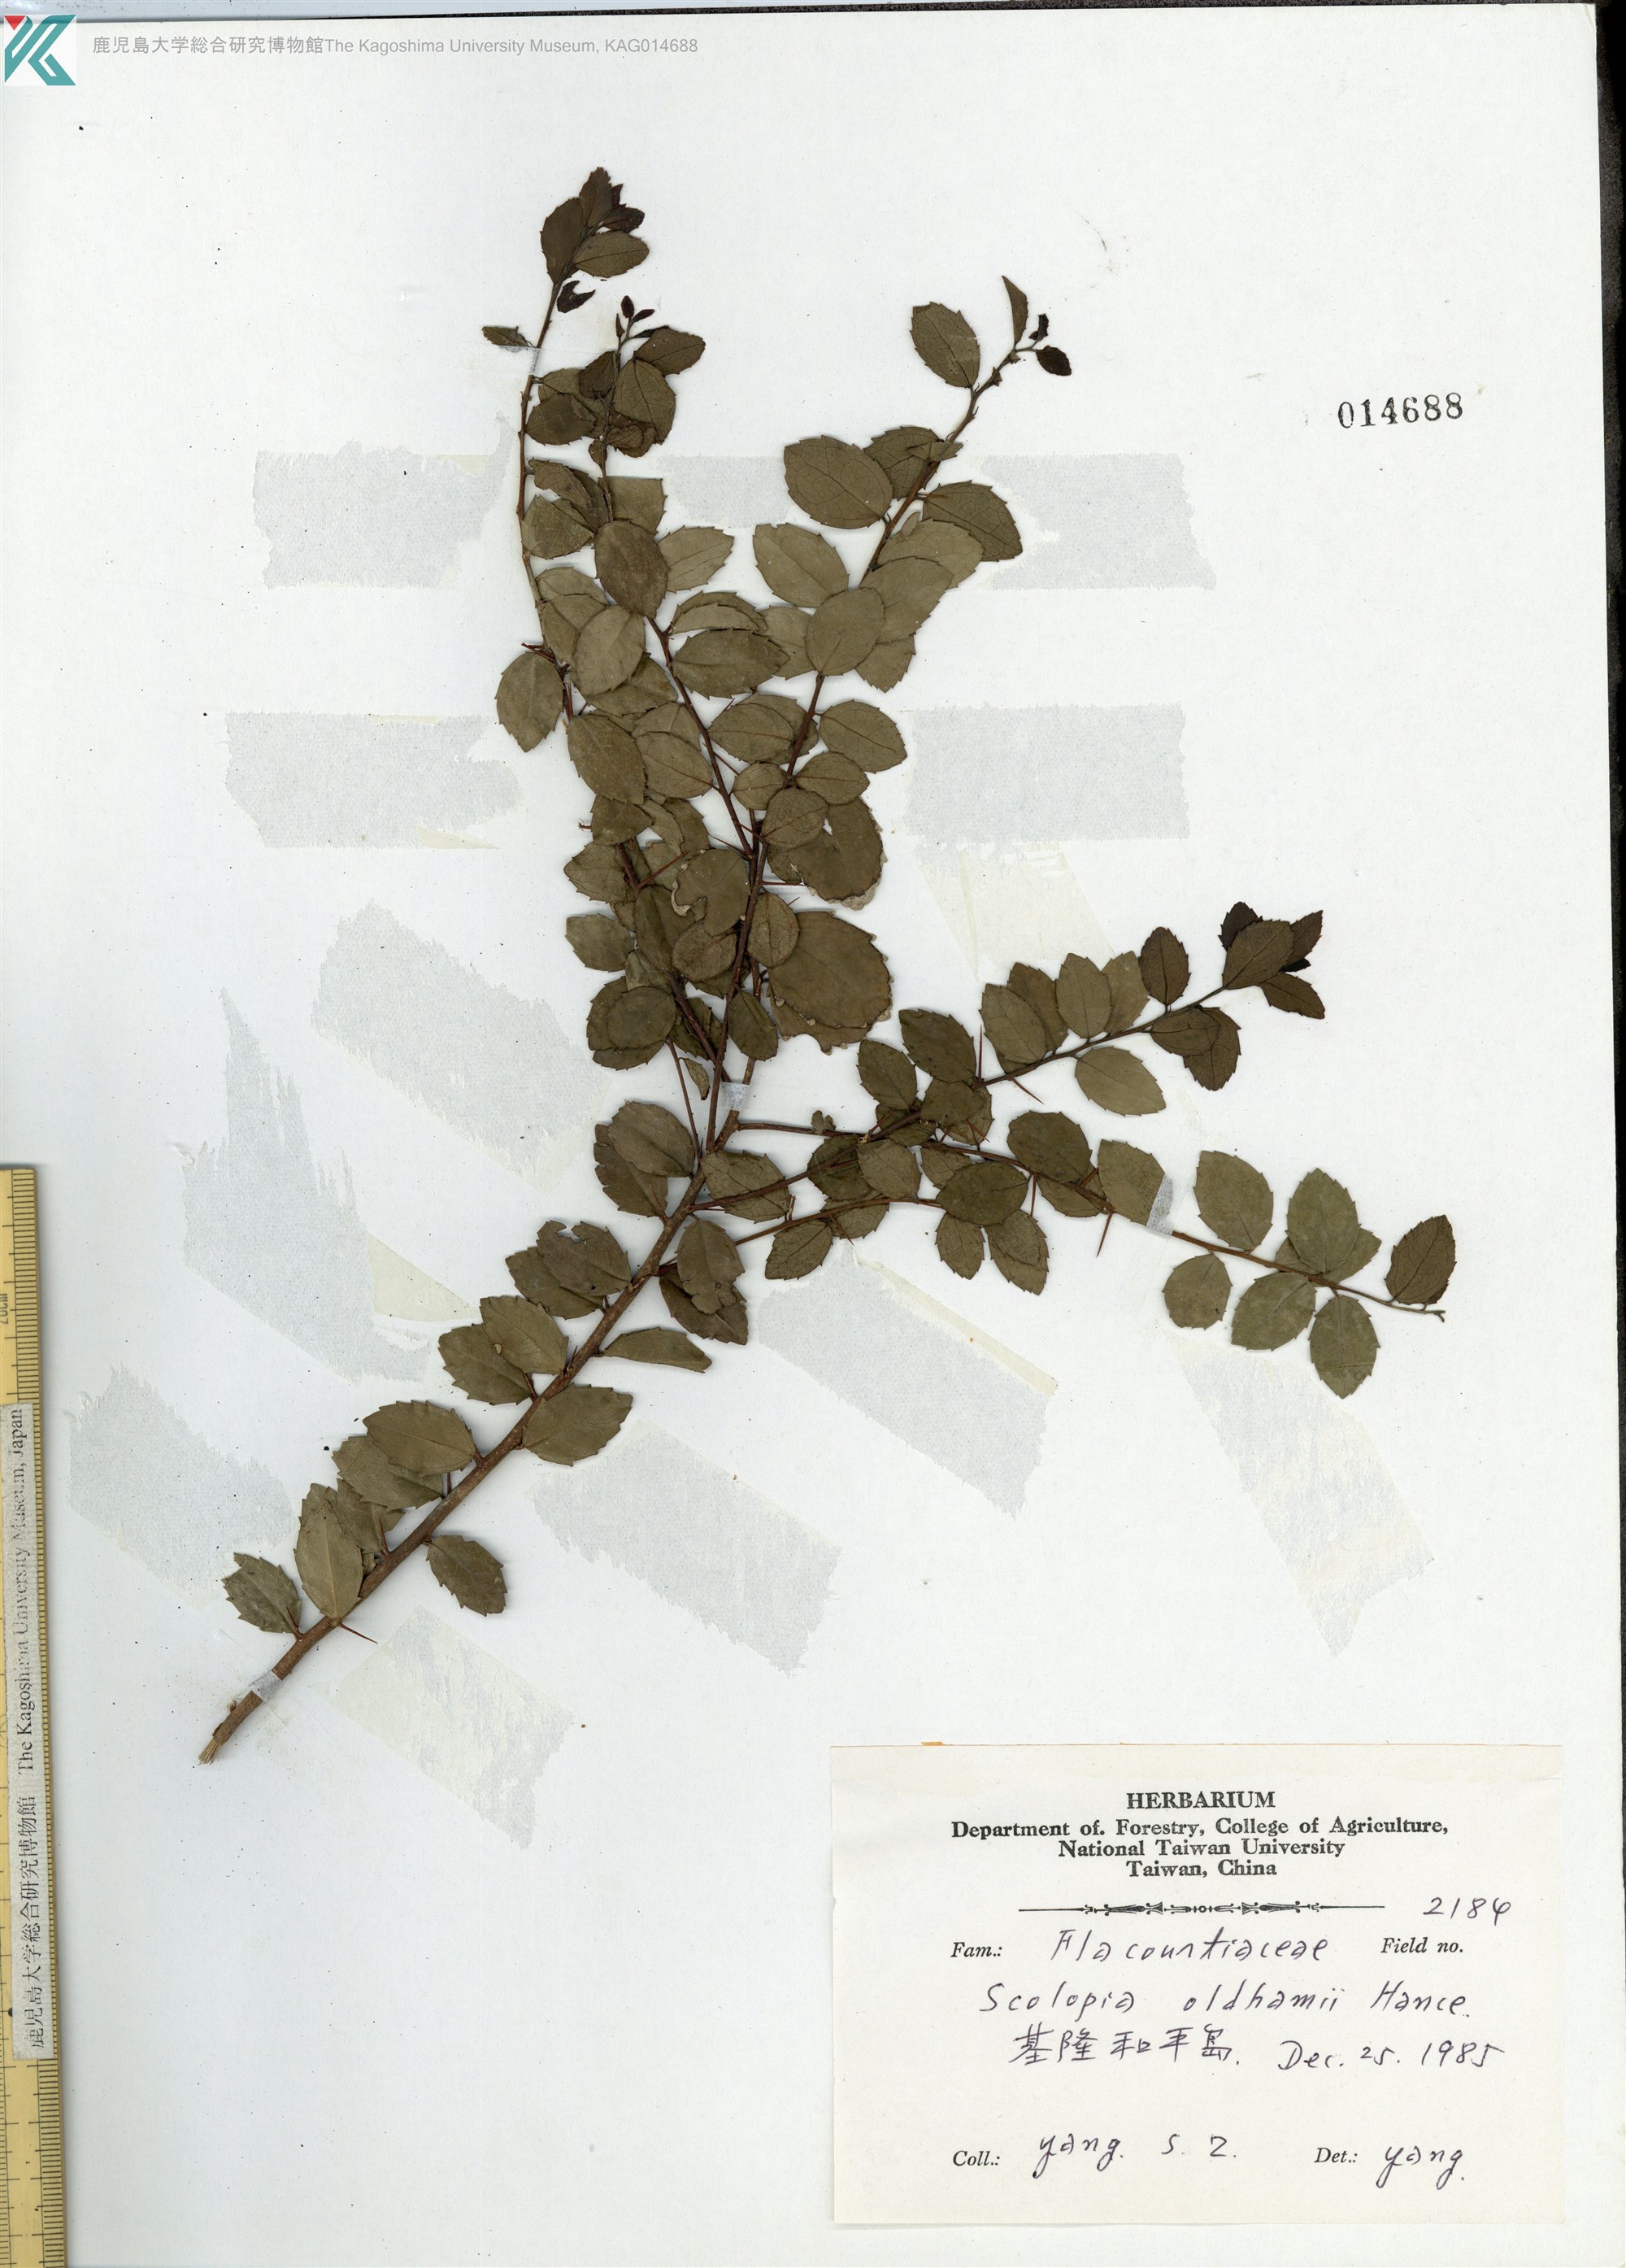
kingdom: Plantae
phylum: Tracheophyta
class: Magnoliopsida
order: Malpighiales
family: Salicaceae
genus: Scolopia
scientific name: Scolopia oldhamii
